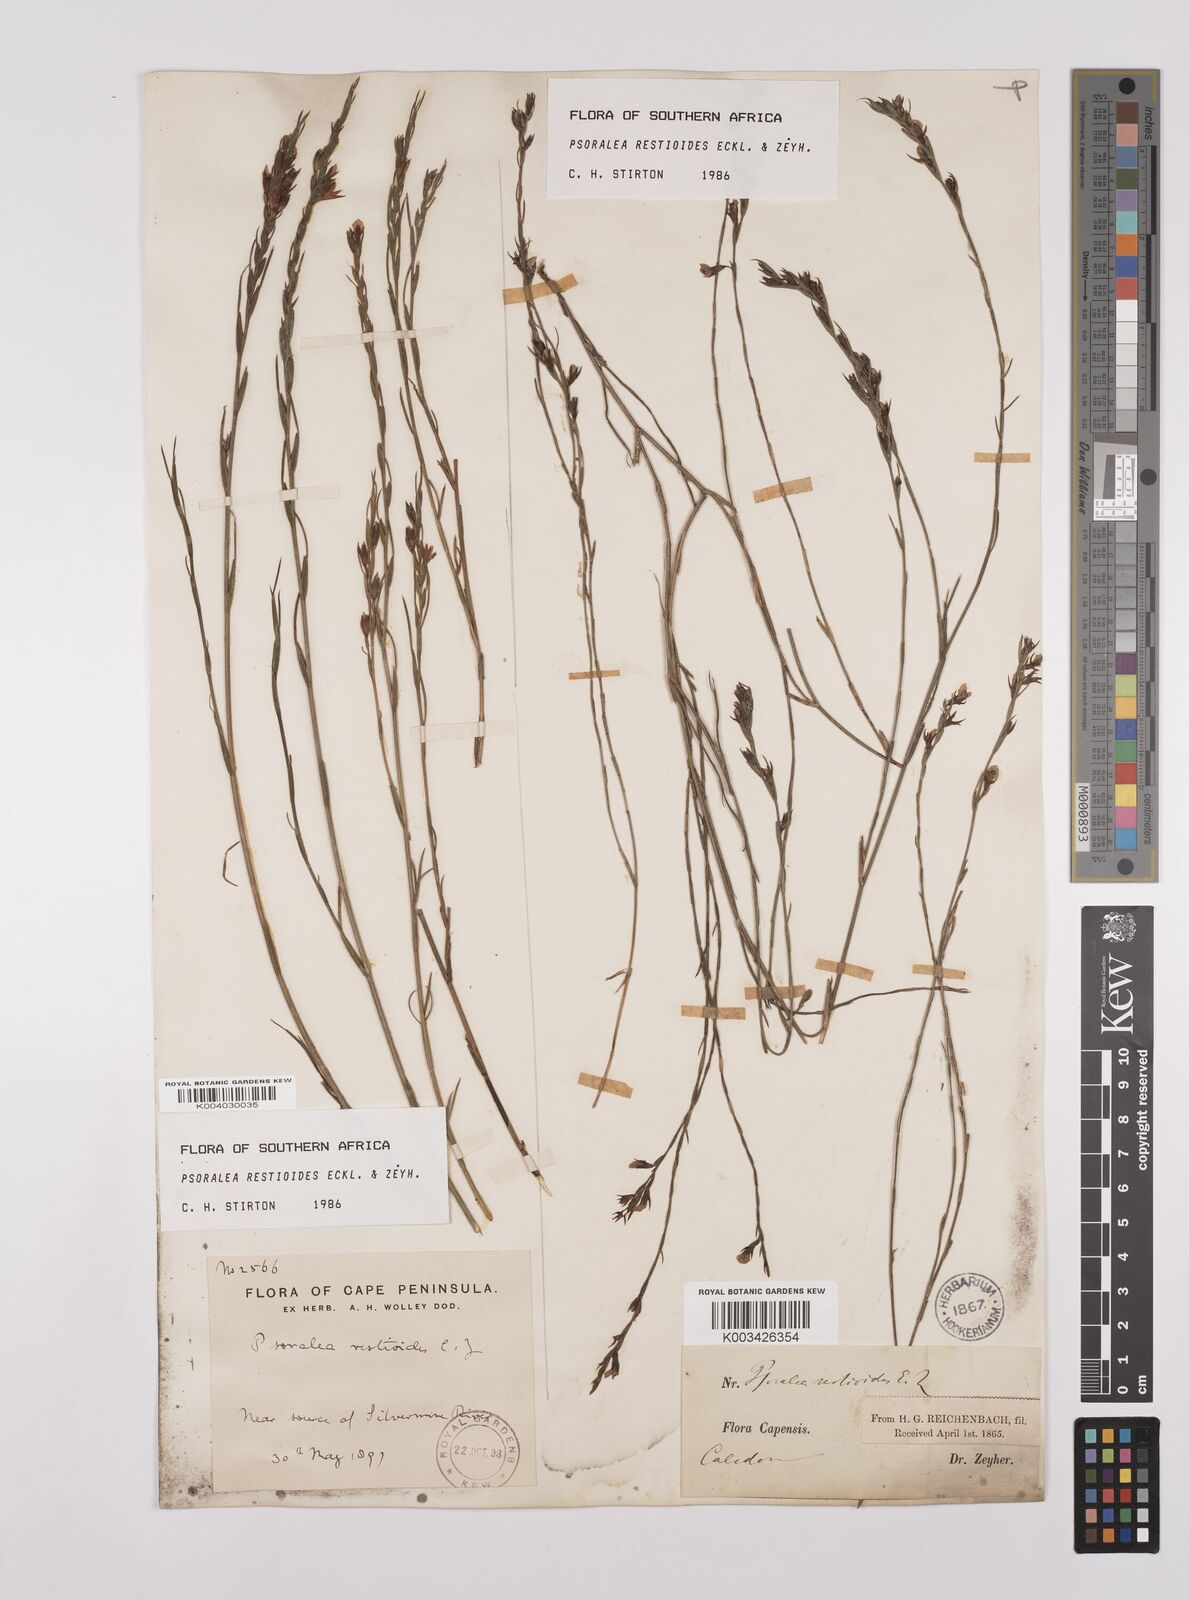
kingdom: Plantae
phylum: Tracheophyta
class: Magnoliopsida
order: Fabales
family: Fabaceae
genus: Psoralea
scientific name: Psoralea restioides
